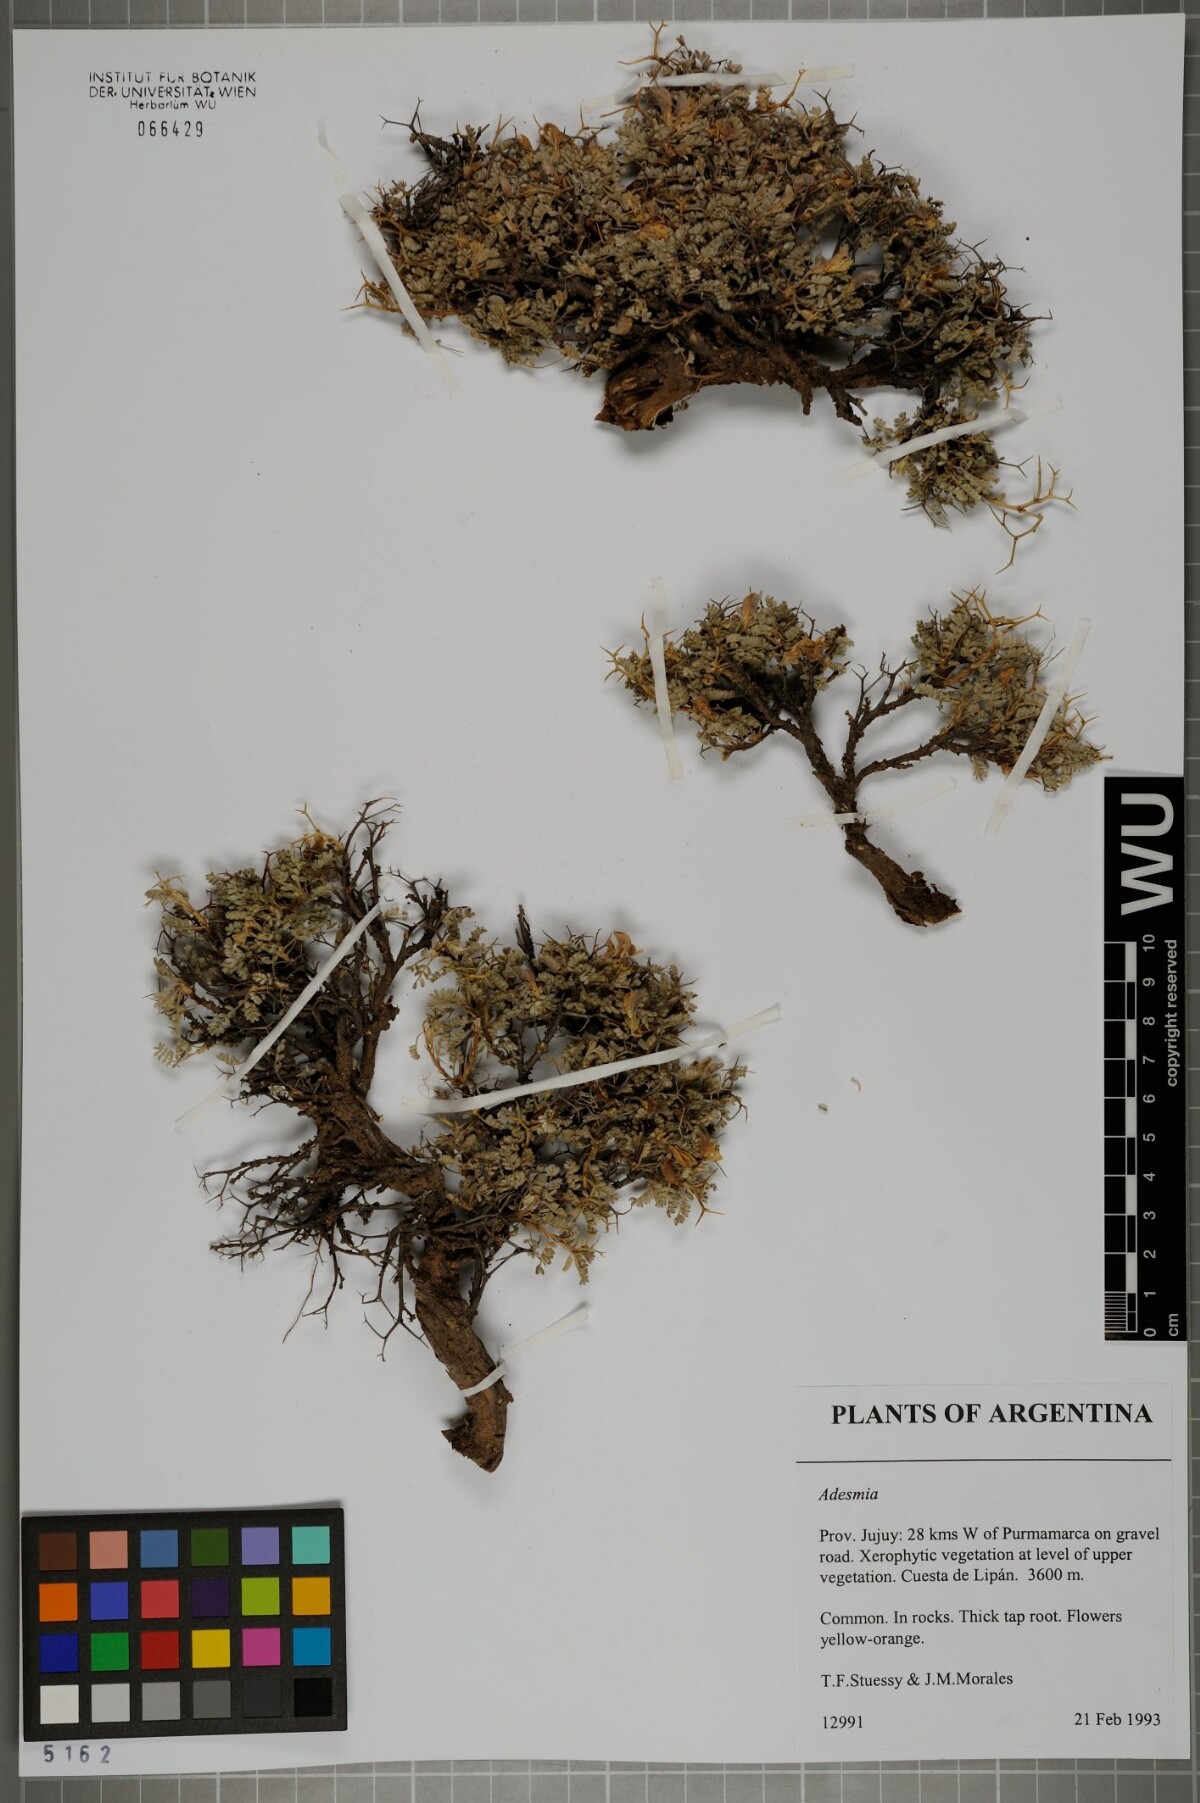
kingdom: Plantae
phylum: Tracheophyta
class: Magnoliopsida
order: Fabales
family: Fabaceae
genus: Adesmia
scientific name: Adesmia
